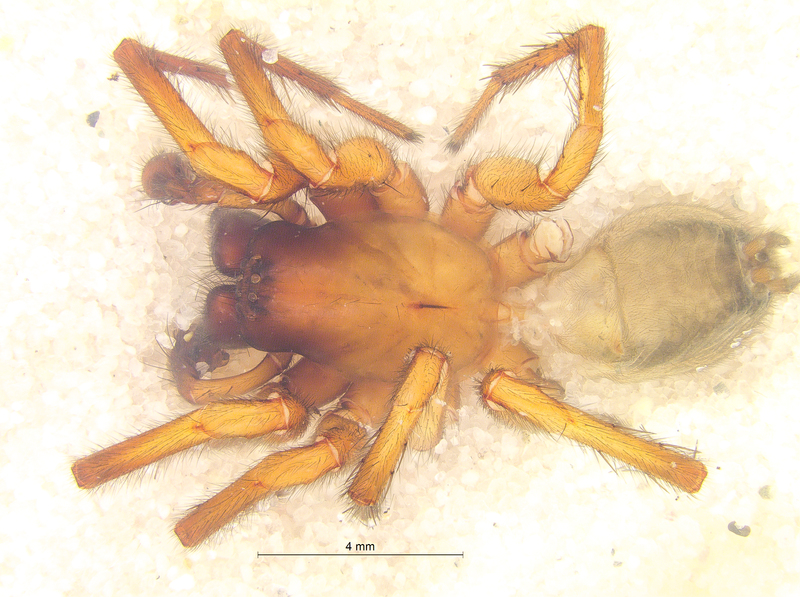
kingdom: Animalia
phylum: Arthropoda
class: Arachnida
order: Araneae
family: Agelenidae
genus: Coelotes
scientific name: Coelotes terrestris
